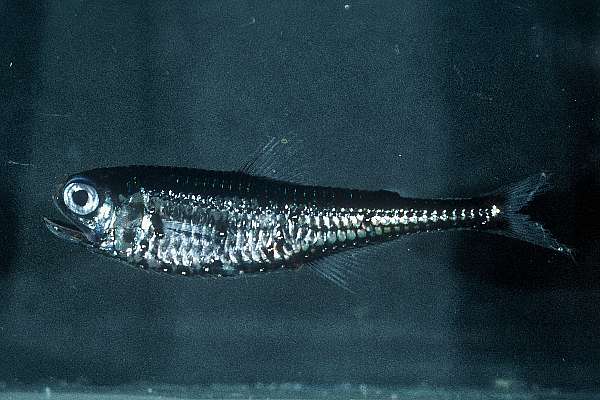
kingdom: Animalia
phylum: Chordata
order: Myctophiformes
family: Myctophidae
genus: Gonichthys
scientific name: Gonichthys barnesi
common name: Barnes' lanternfish
